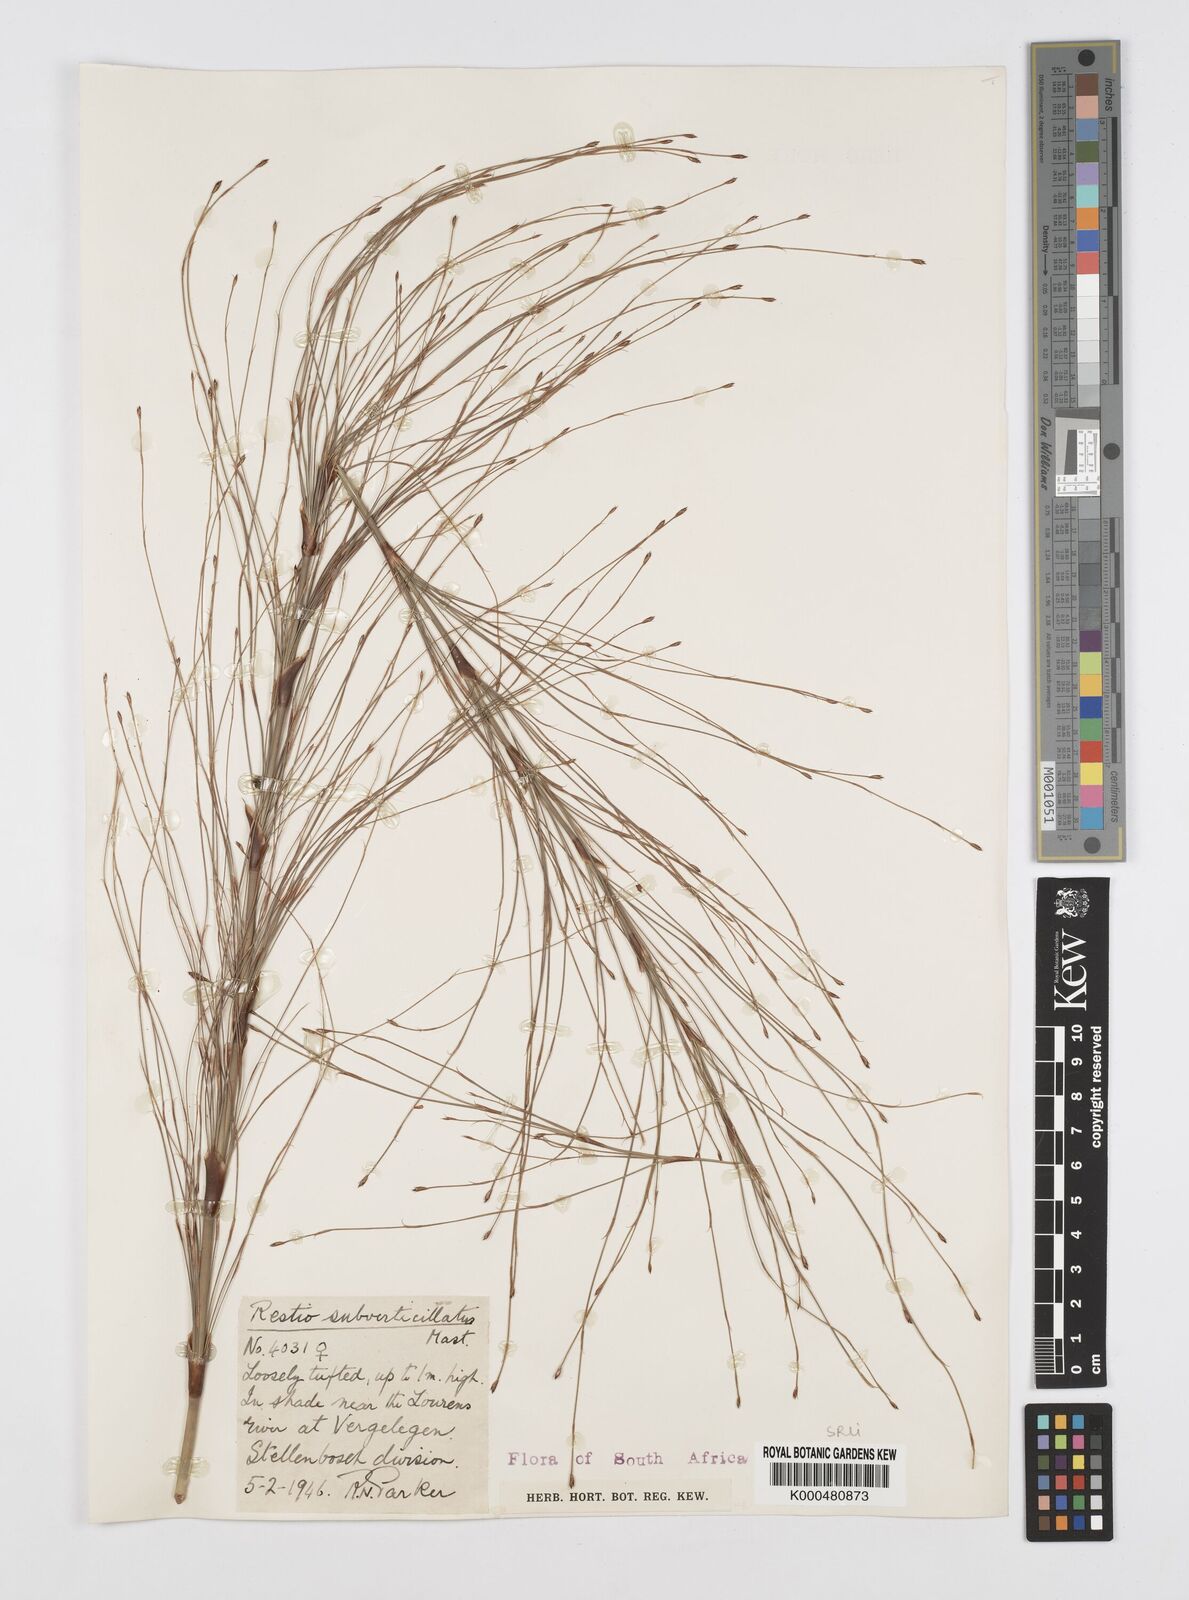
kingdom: Plantae
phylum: Tracheophyta
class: Liliopsida
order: Poales
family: Restionaceae
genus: Restio
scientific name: Restio subverticillatus
